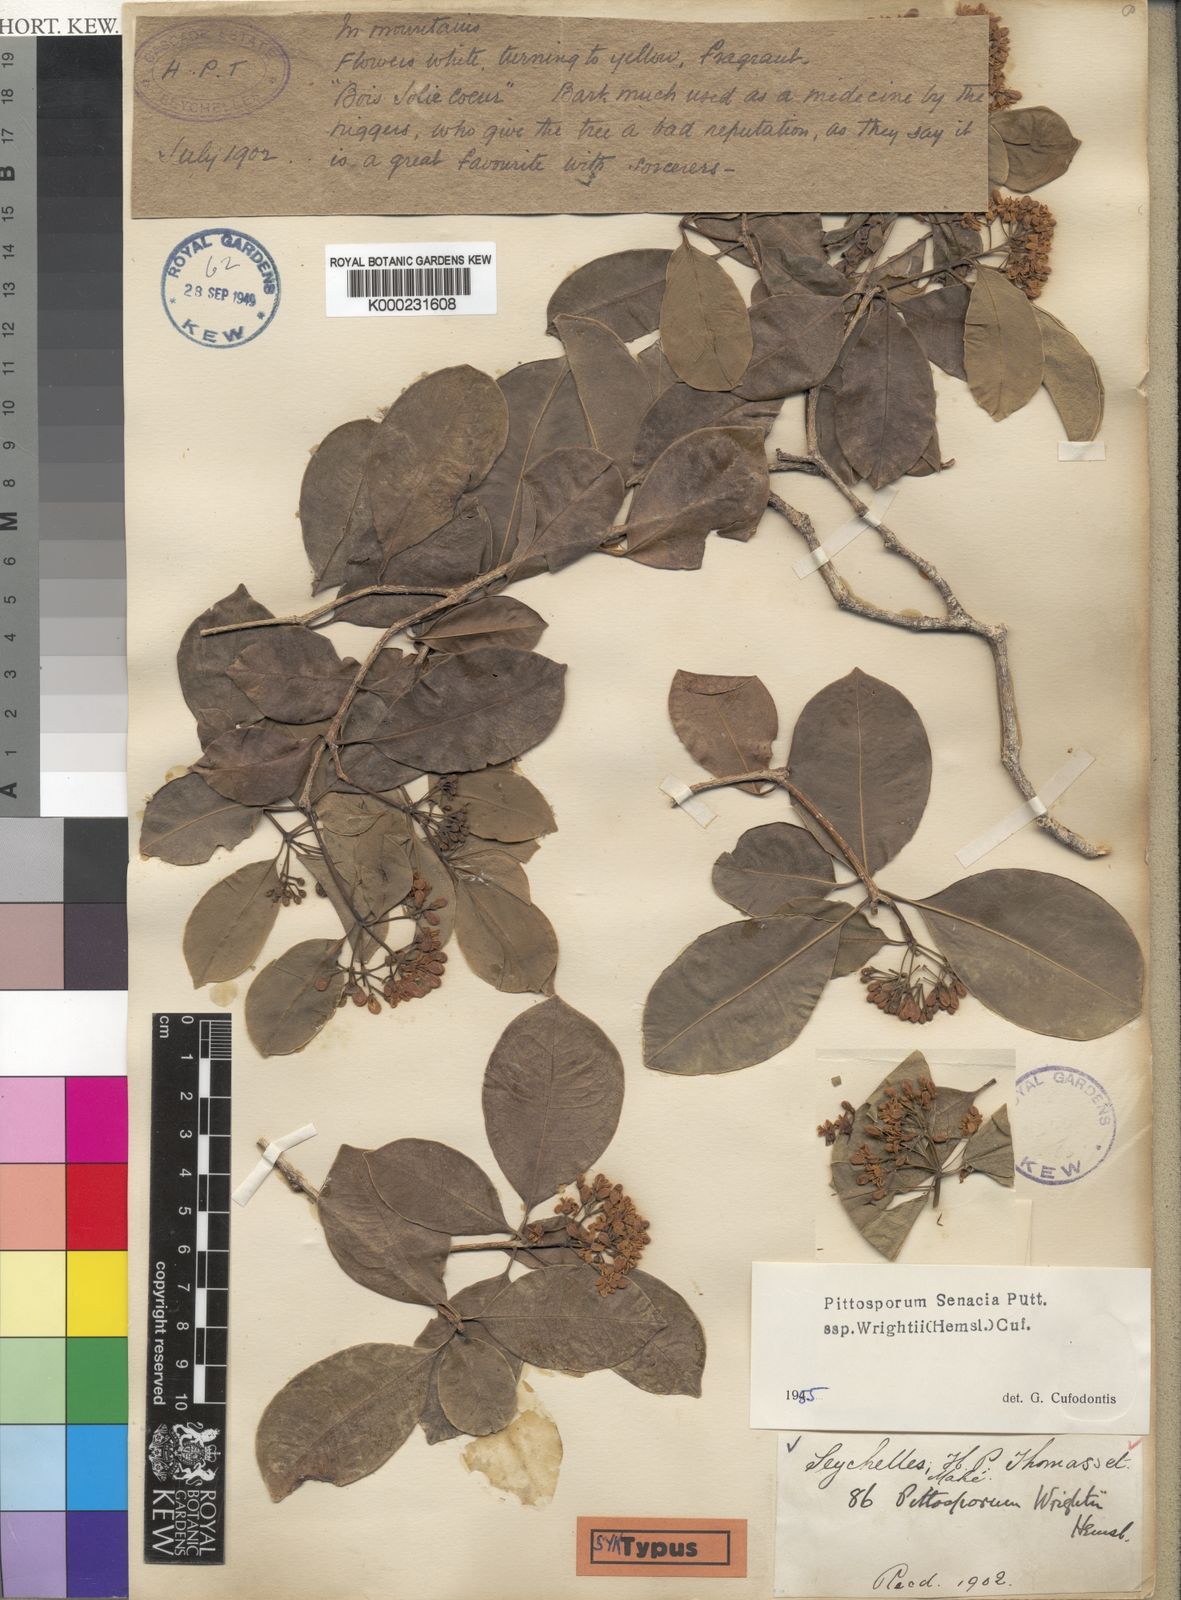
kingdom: Plantae
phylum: Tracheophyta
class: Magnoliopsida
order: Apiales
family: Pittosporaceae
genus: Pittosporum
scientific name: Pittosporum senacia
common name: Cheesewood
